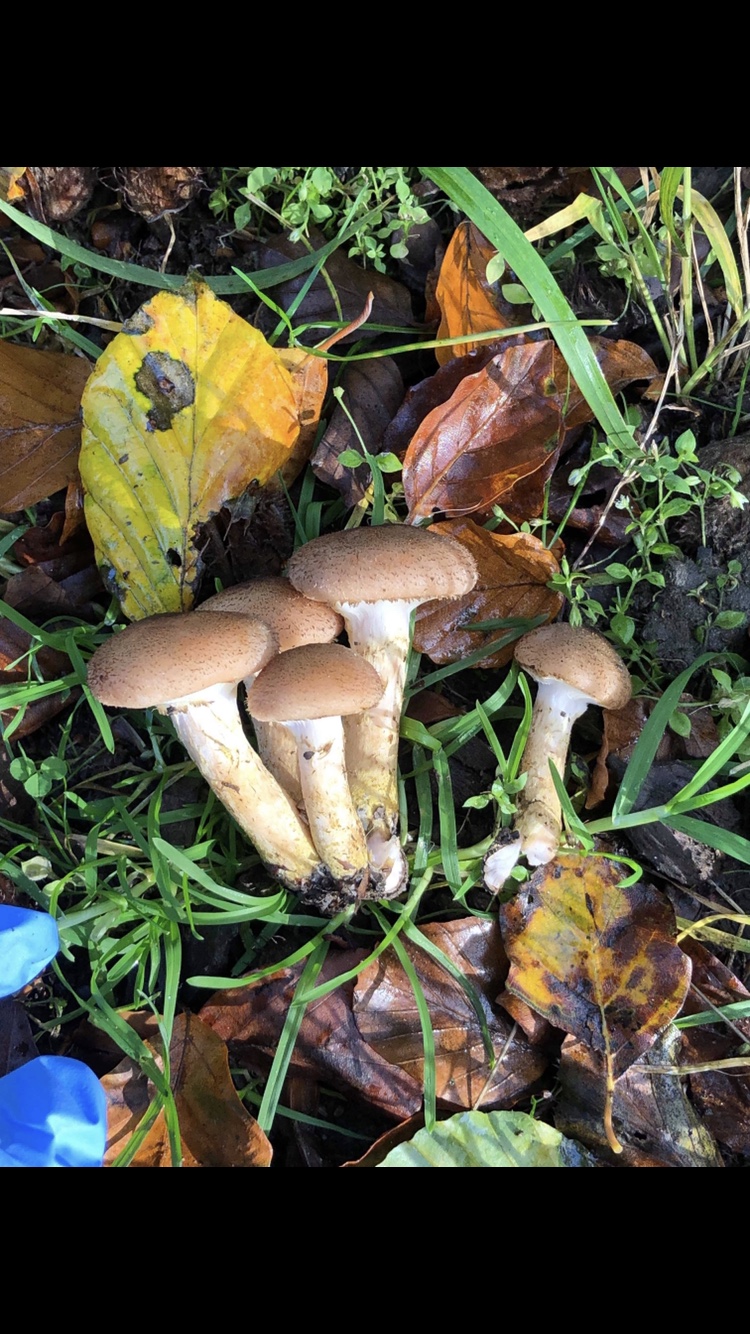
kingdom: Fungi
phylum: Basidiomycota
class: Agaricomycetes
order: Agaricales
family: Physalacriaceae
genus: Armillaria
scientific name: Armillaria
